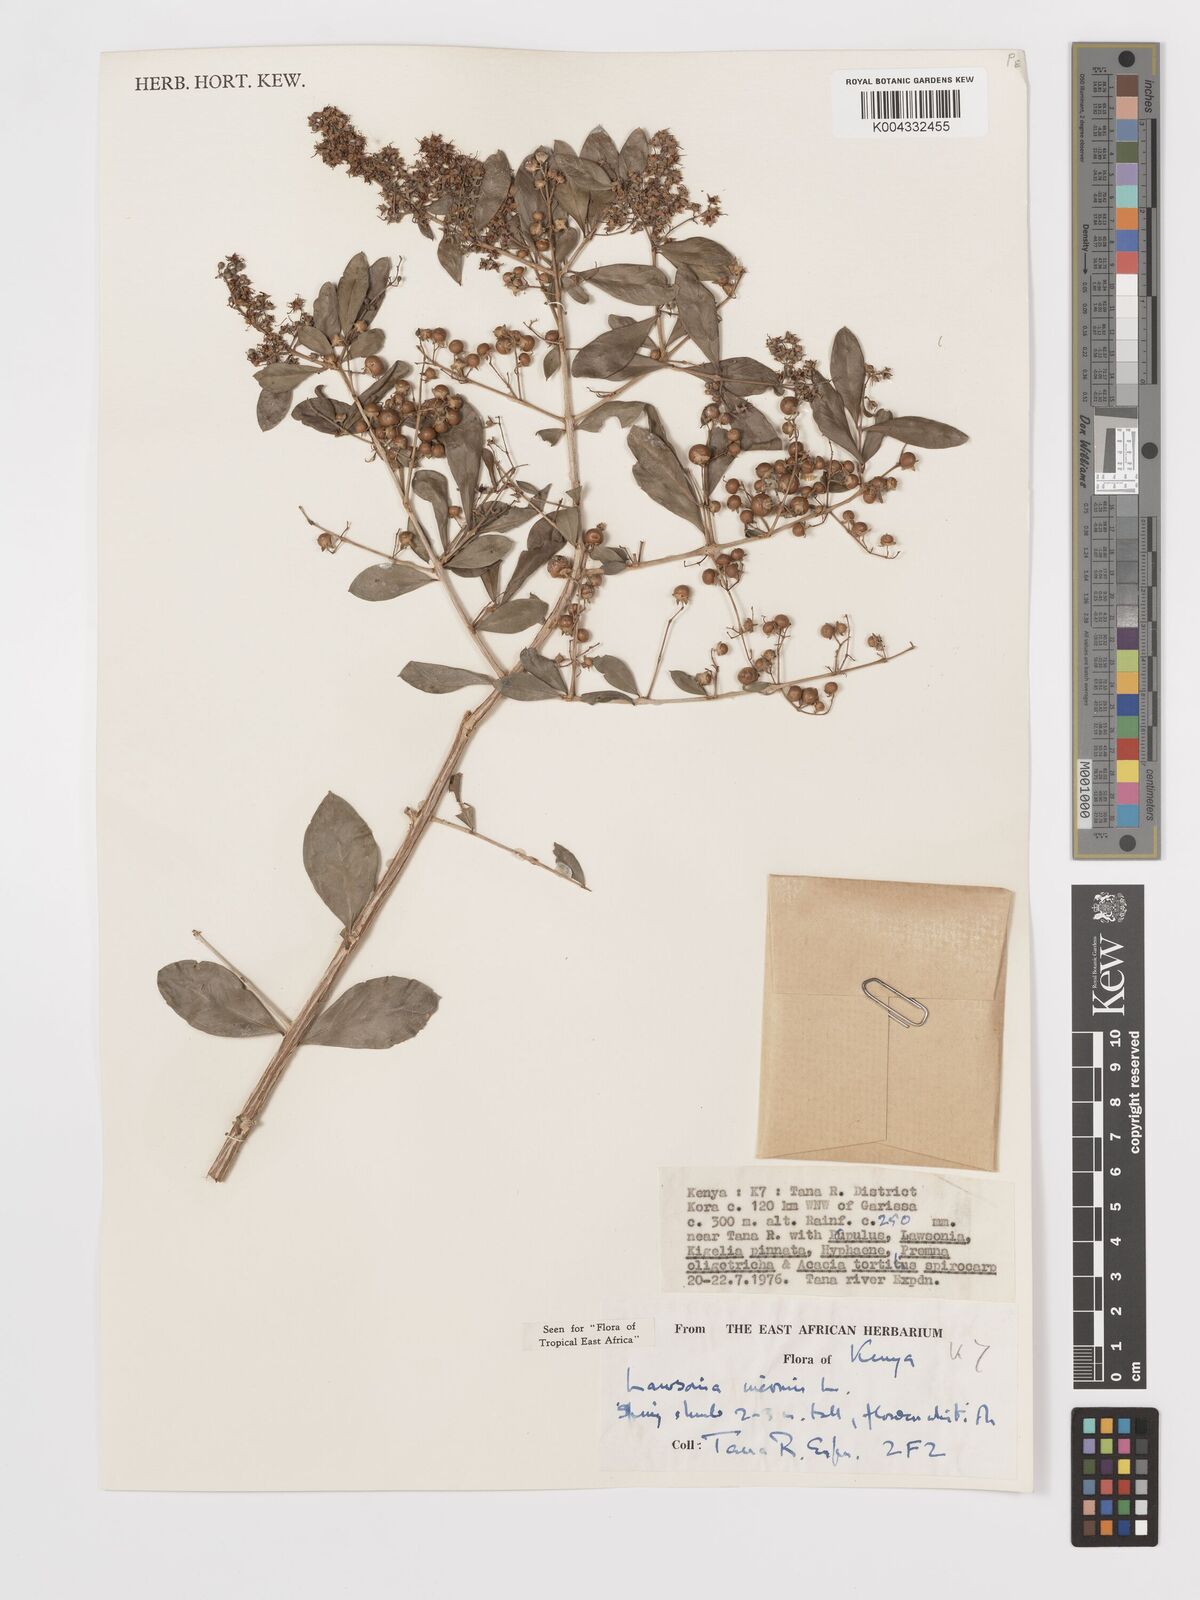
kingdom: Plantae
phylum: Tracheophyta
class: Magnoliopsida
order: Myrtales
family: Lythraceae
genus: Lawsonia
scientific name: Lawsonia inermis
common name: Henna
